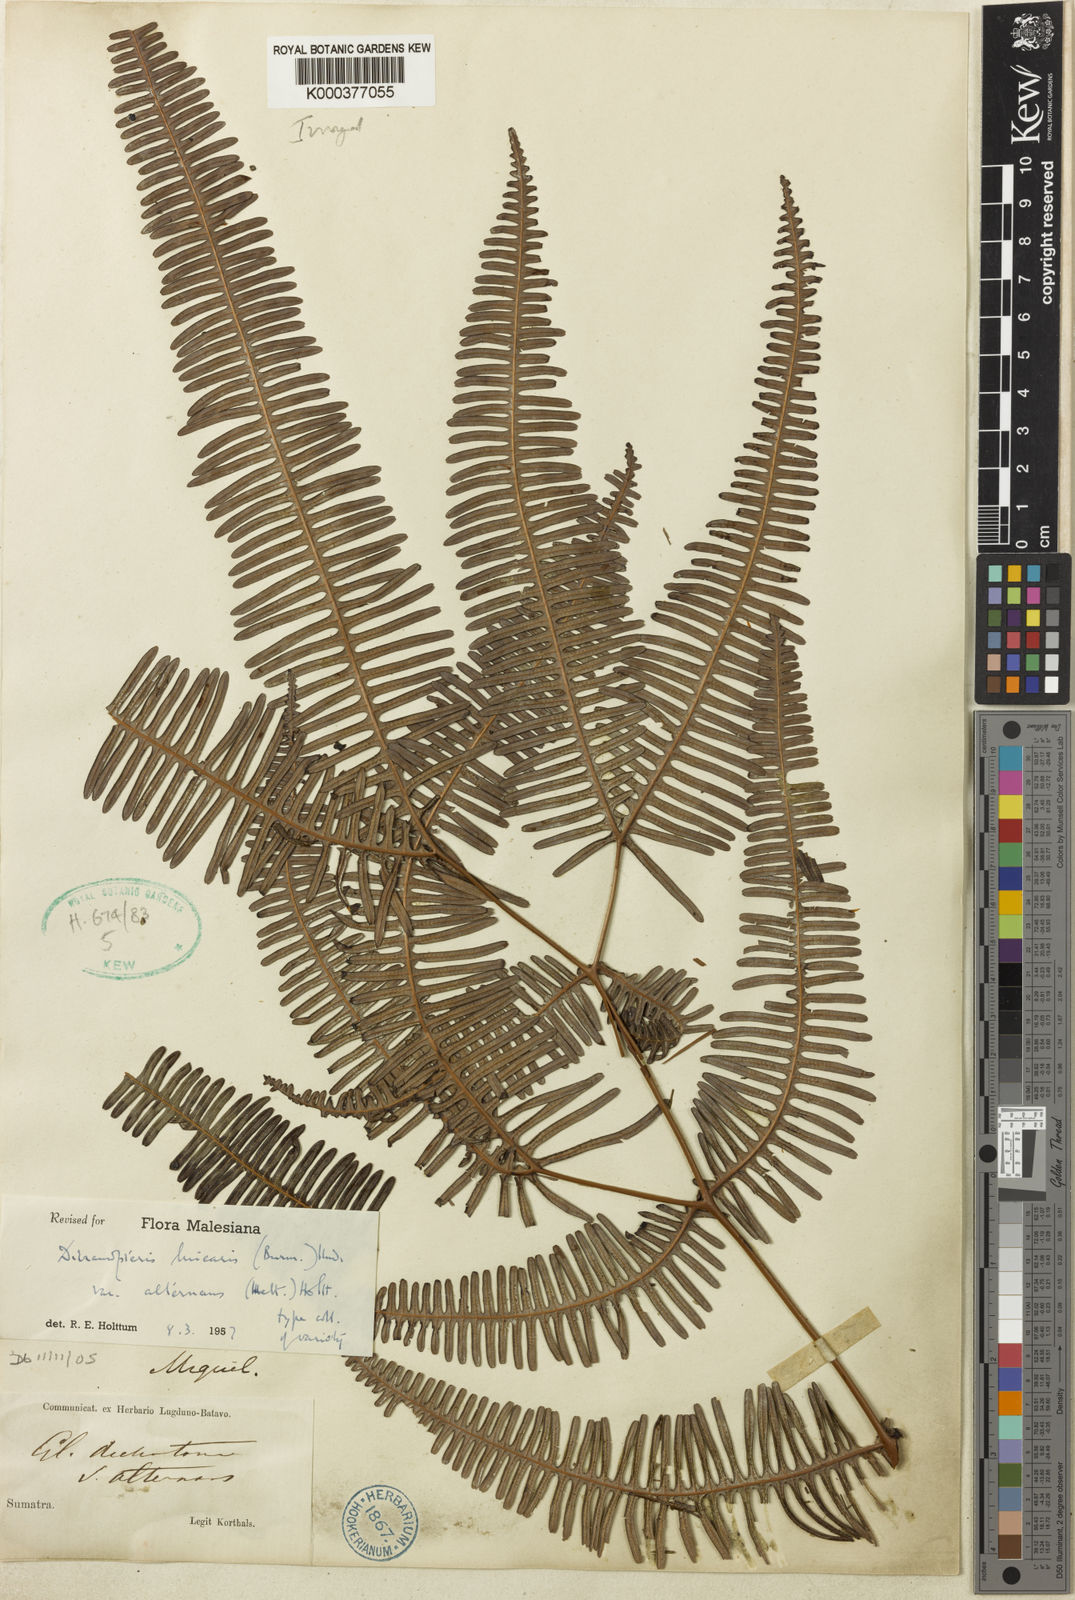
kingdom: Plantae
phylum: Tracheophyta
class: Polypodiopsida
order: Gleicheniales
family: Gleicheniaceae
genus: Dicranopteris
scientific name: Dicranopteris linearis
